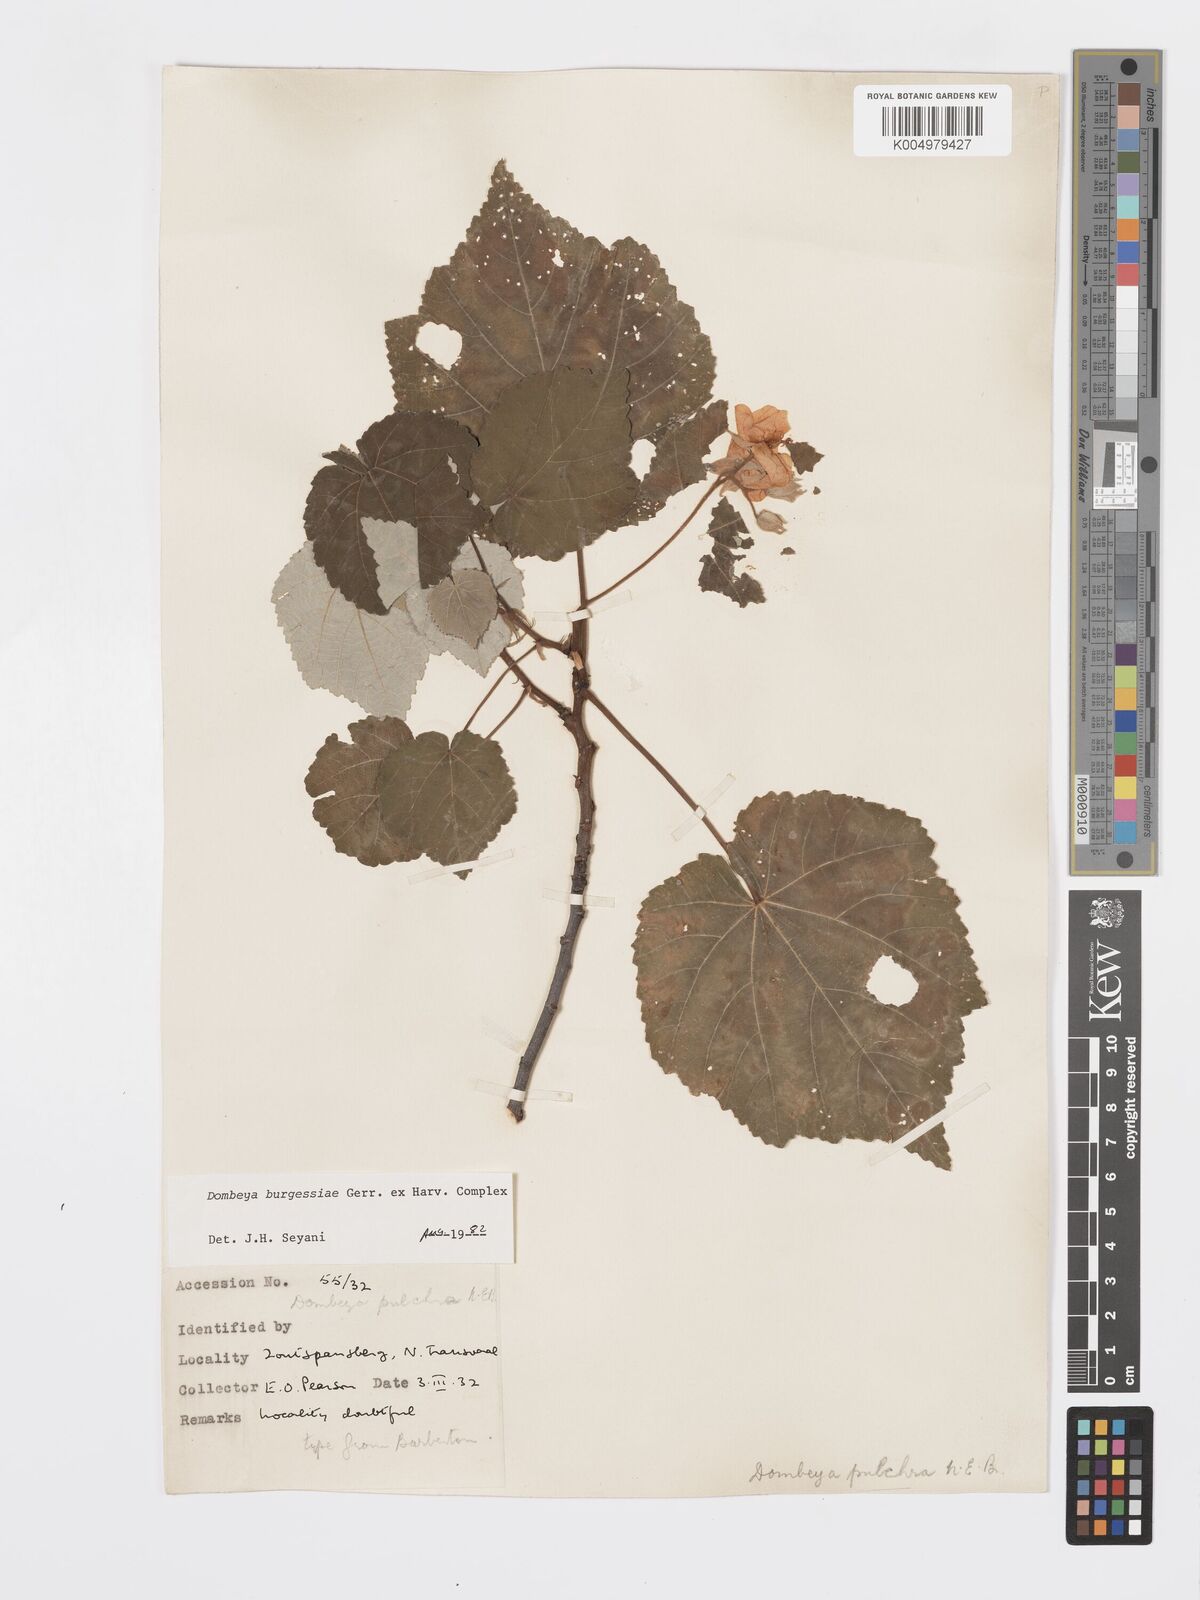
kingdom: Plantae
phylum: Tracheophyta
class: Magnoliopsida
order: Malvales
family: Malvaceae
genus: Dombeya
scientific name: Dombeya burgessiae
